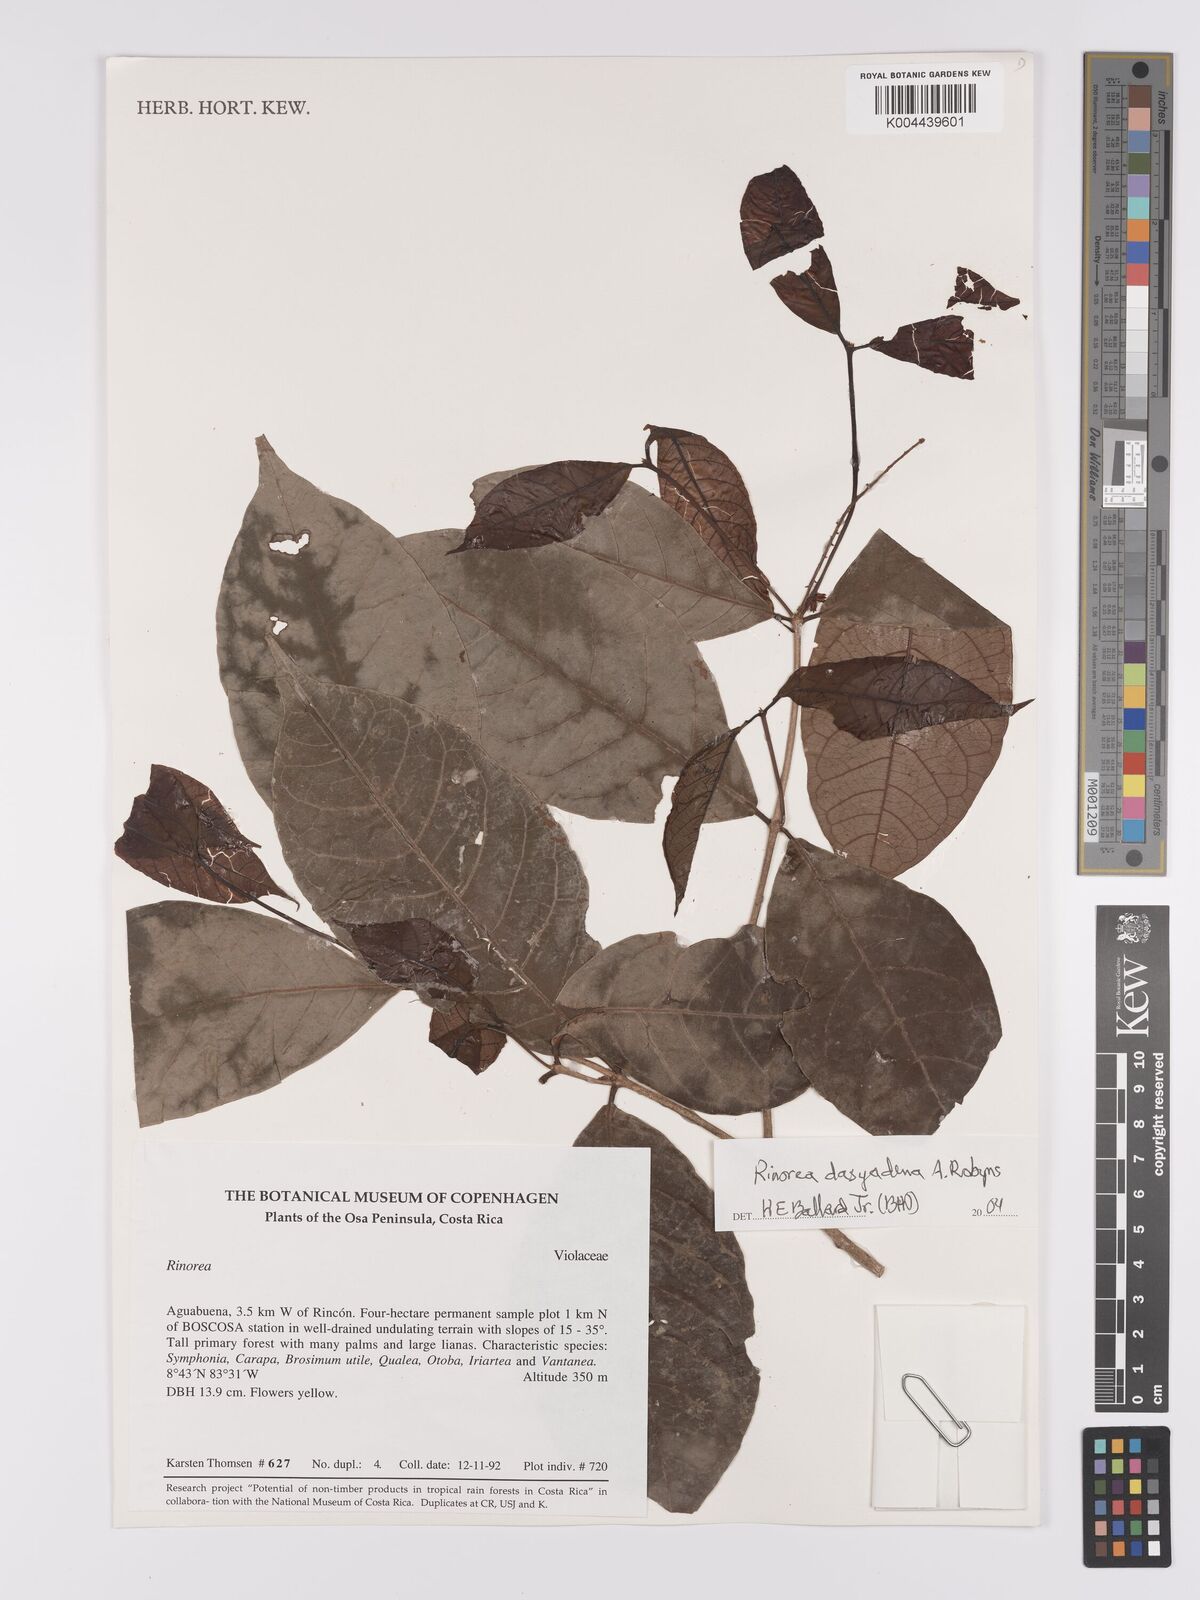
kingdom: Plantae
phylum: Tracheophyta
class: Magnoliopsida
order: Malpighiales
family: Violaceae
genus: Rinorea
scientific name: Rinorea dasyadena
